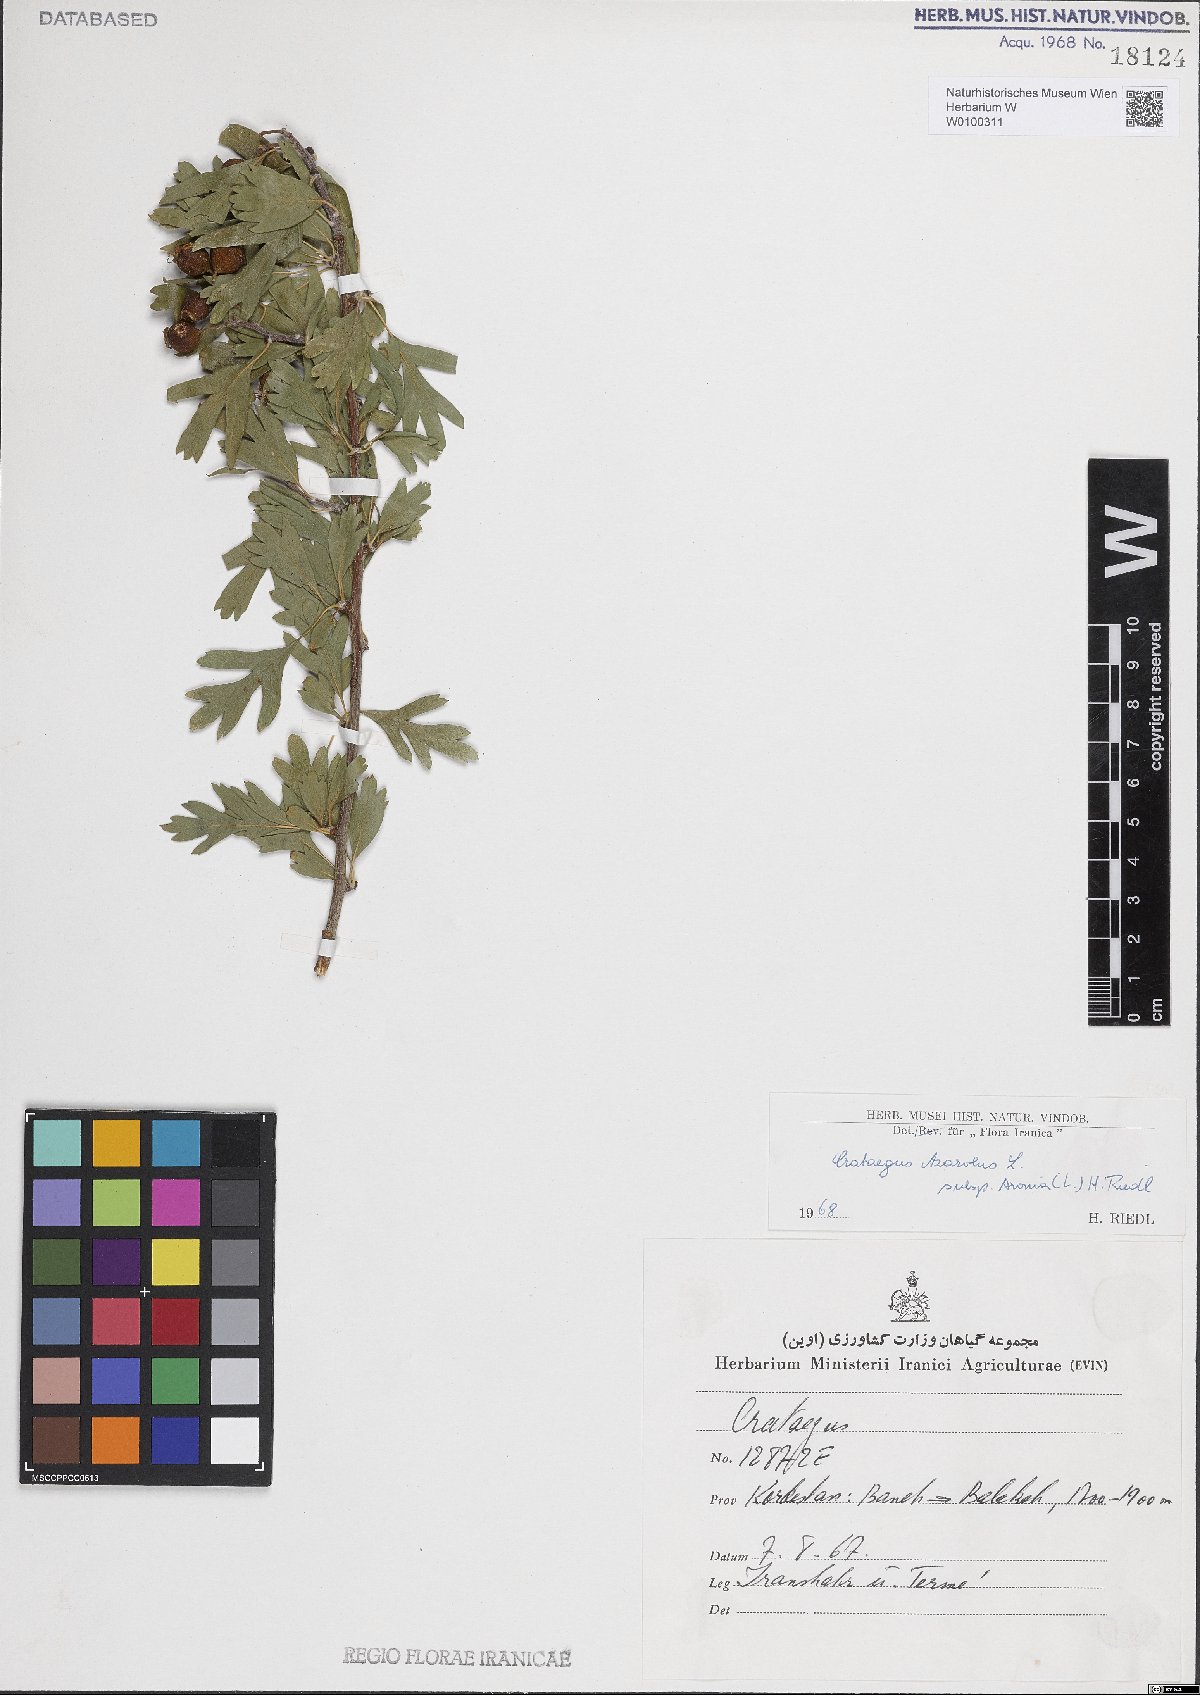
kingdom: Plantae
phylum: Tracheophyta
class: Magnoliopsida
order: Rosales
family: Rosaceae
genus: Crataegus
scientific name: Crataegus azarolus
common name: Azarole
